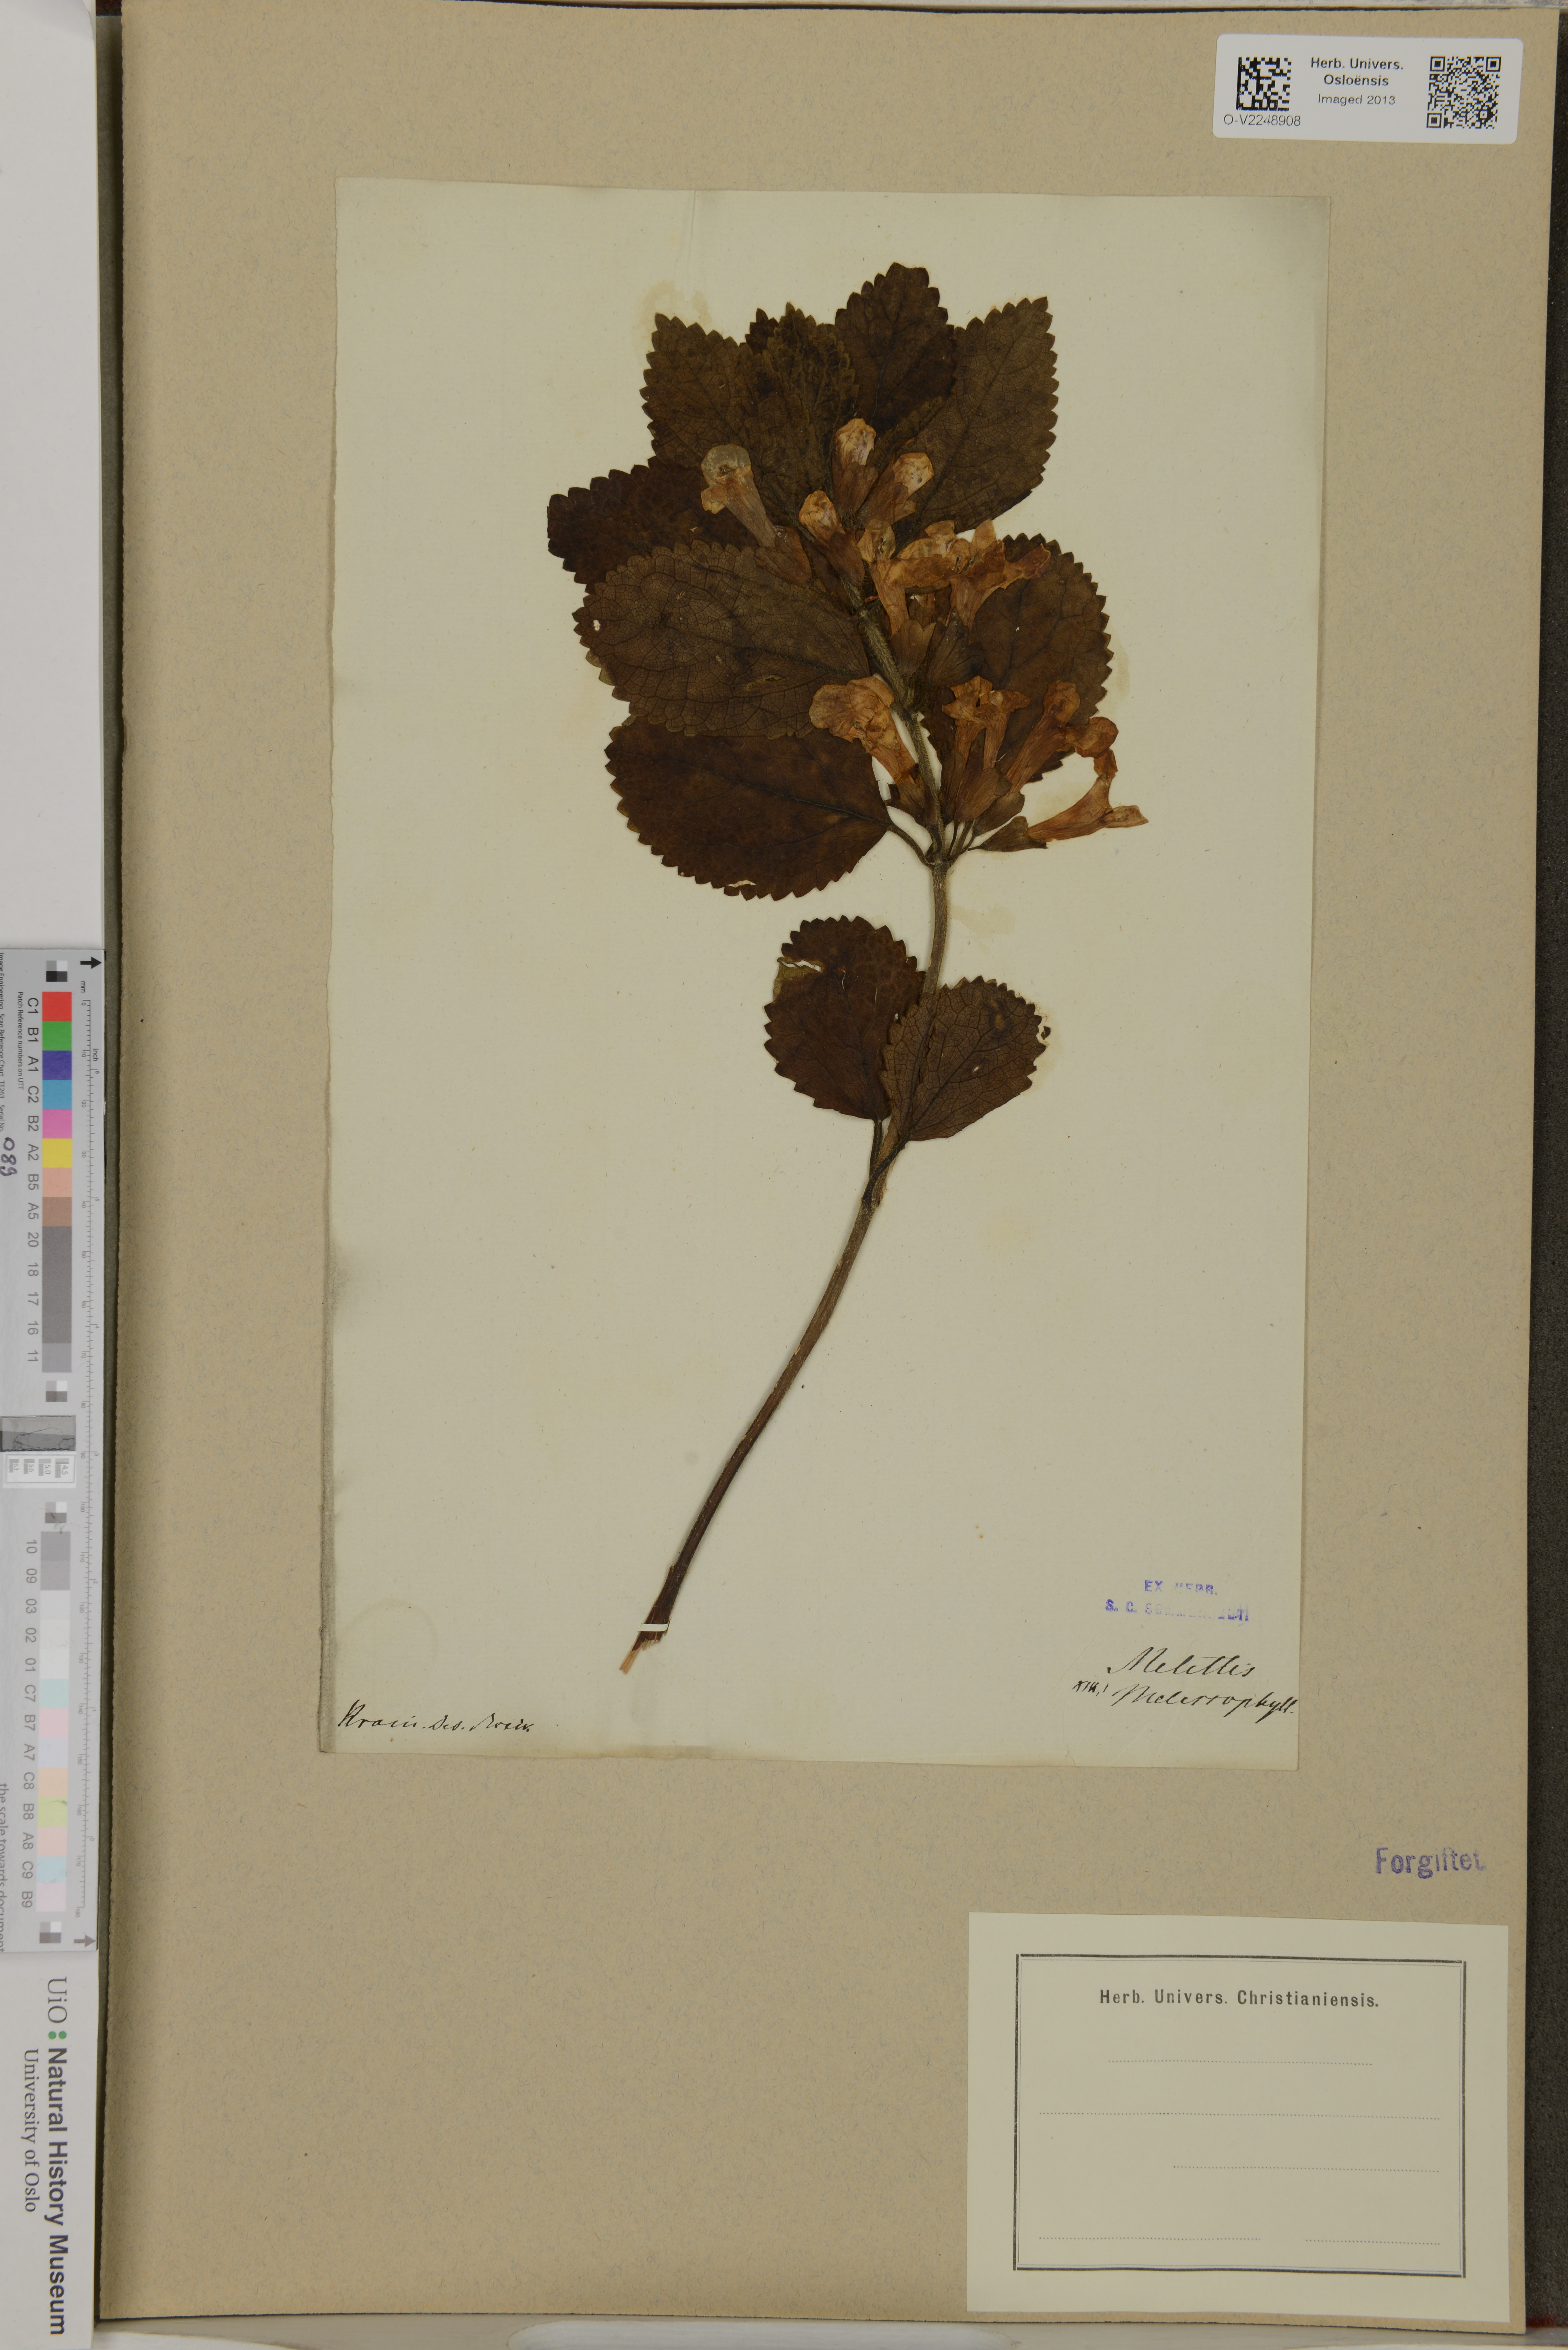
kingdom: Plantae
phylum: Tracheophyta
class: Magnoliopsida
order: Lamiales
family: Lamiaceae
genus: Melittis
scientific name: Melittis melissophyllum
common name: Bastard balm
